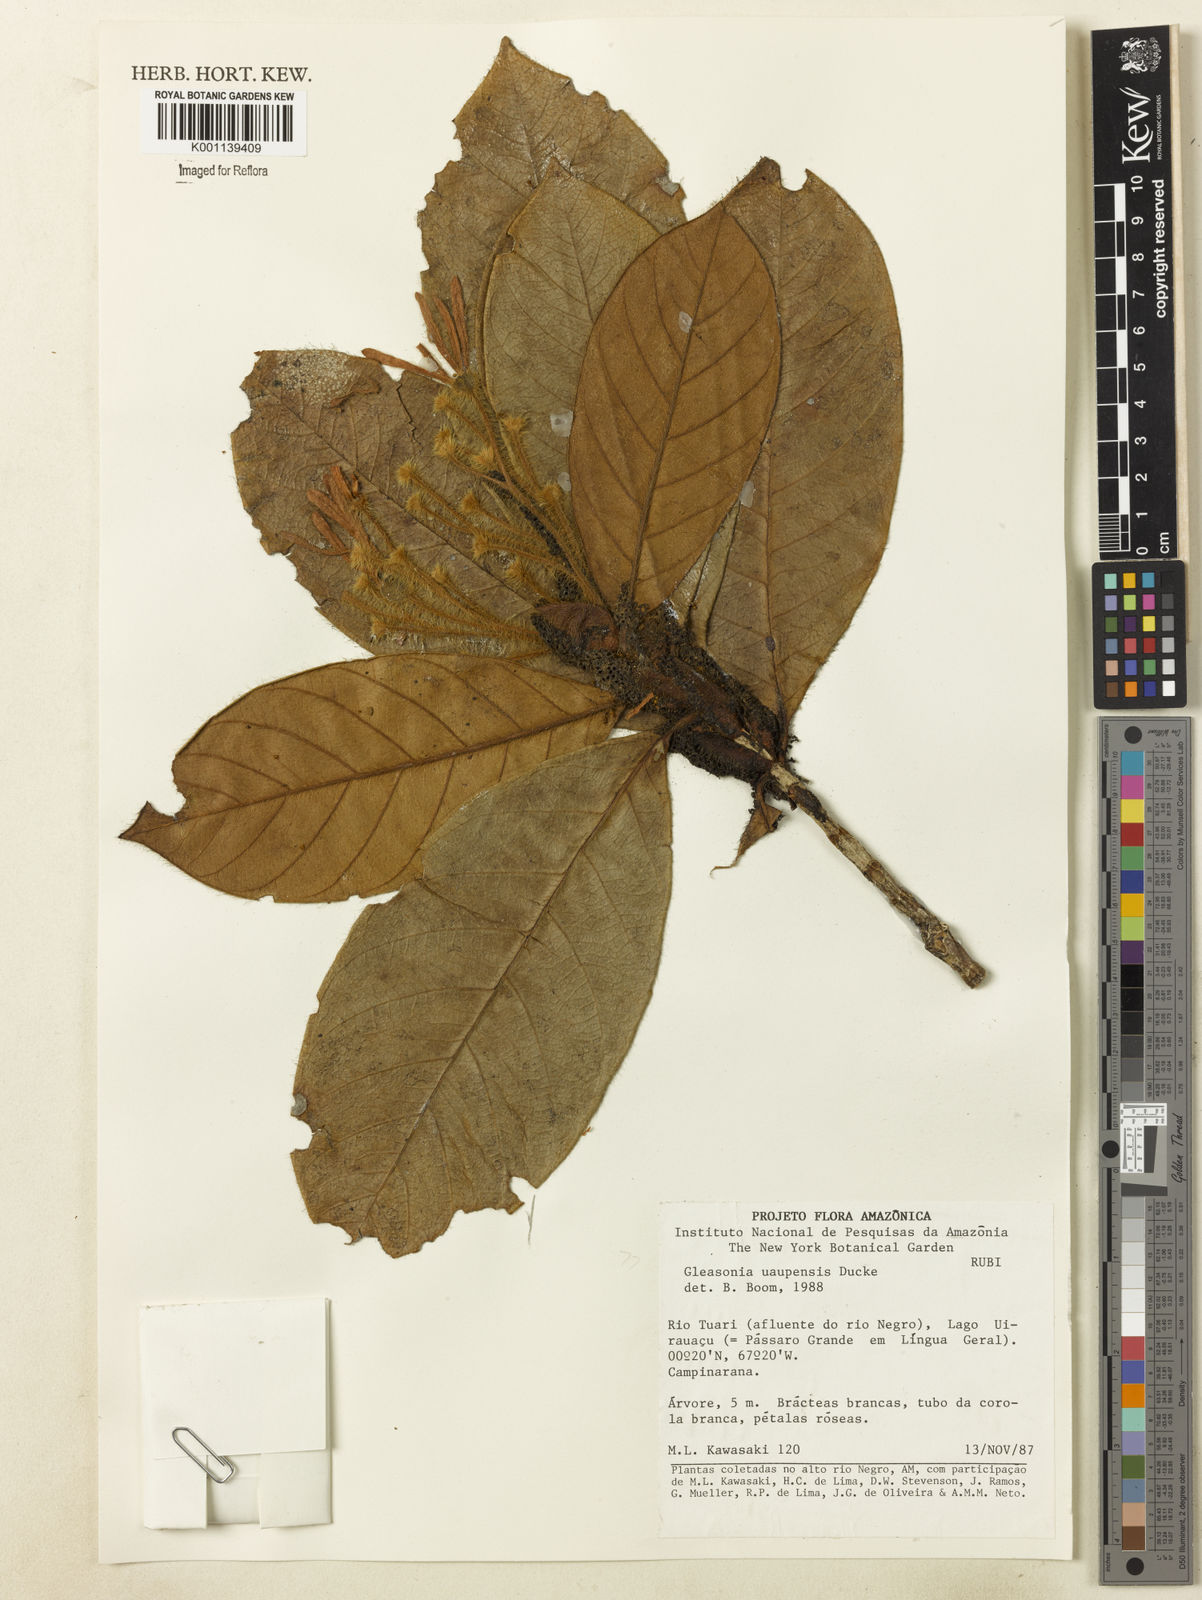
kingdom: Plantae
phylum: Tracheophyta
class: Magnoliopsida
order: Gentianales
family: Rubiaceae
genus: Gleasonia
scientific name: Gleasonia uaupensis
